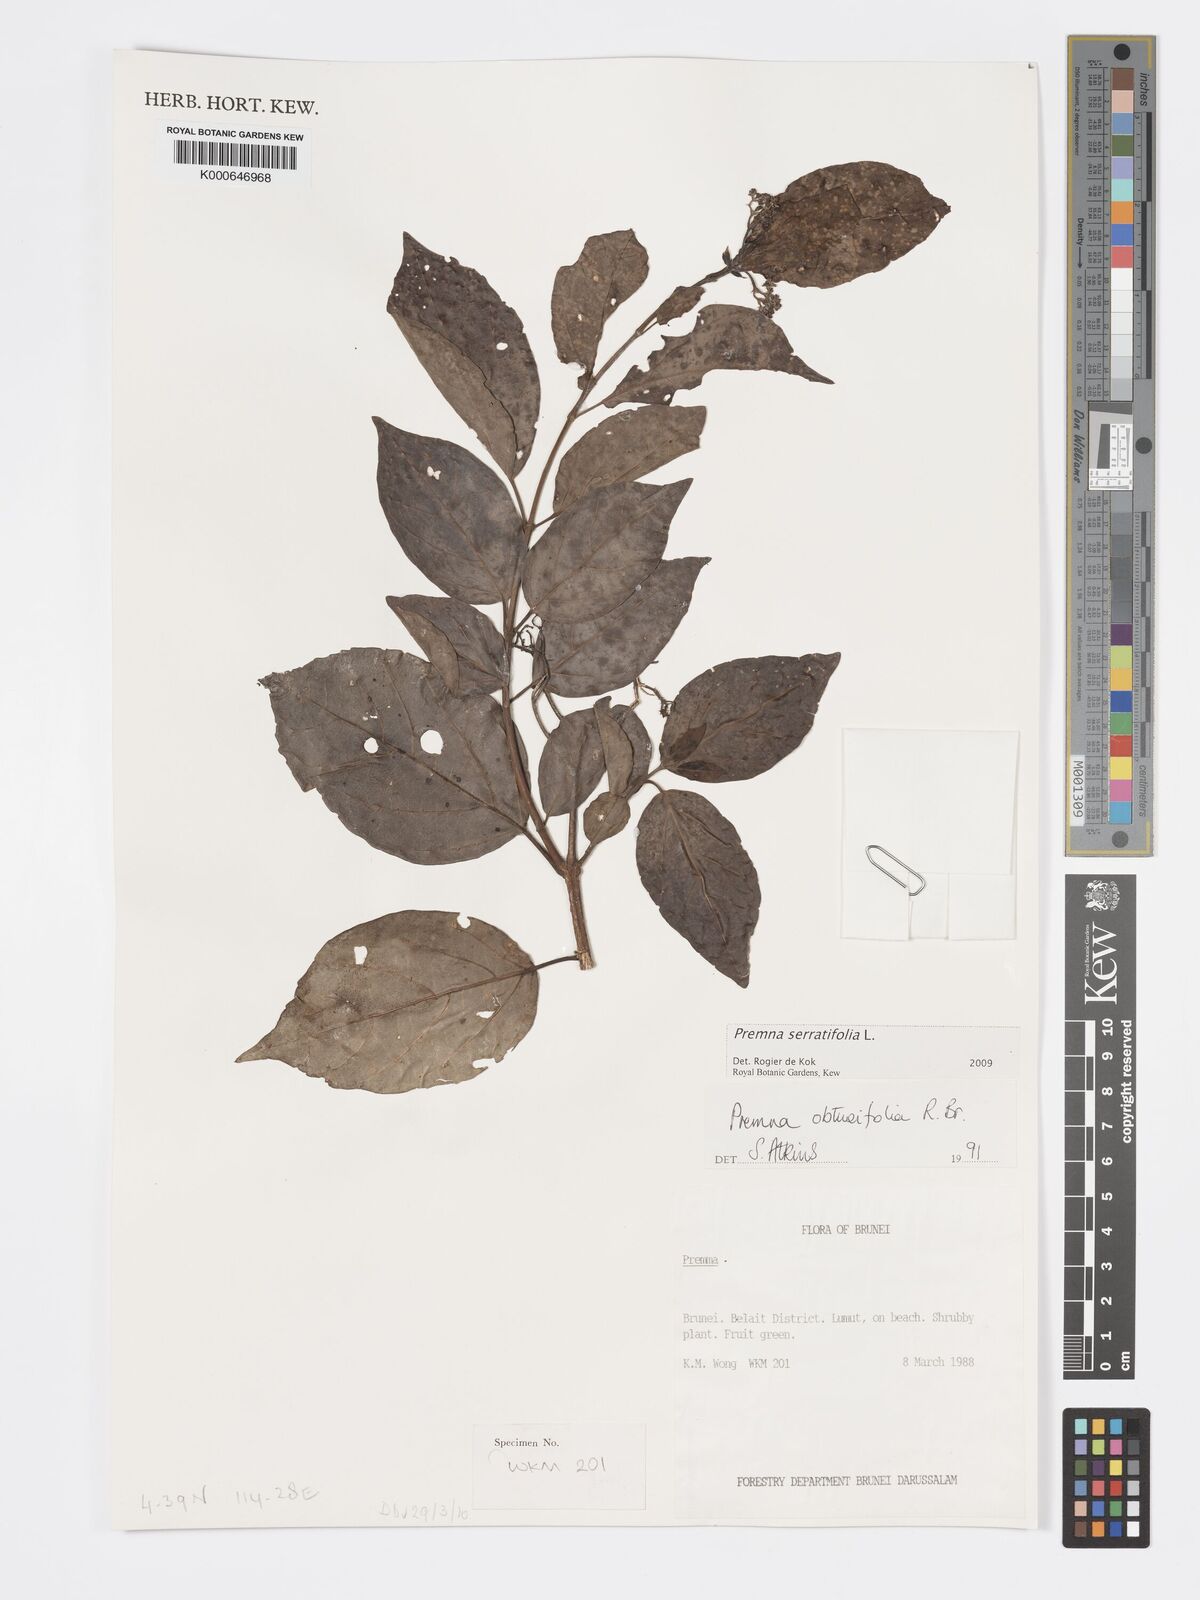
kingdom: Plantae
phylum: Tracheophyta
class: Magnoliopsida
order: Lamiales
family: Lamiaceae
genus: Premna
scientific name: Premna serratifolia
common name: Bastard guelder
